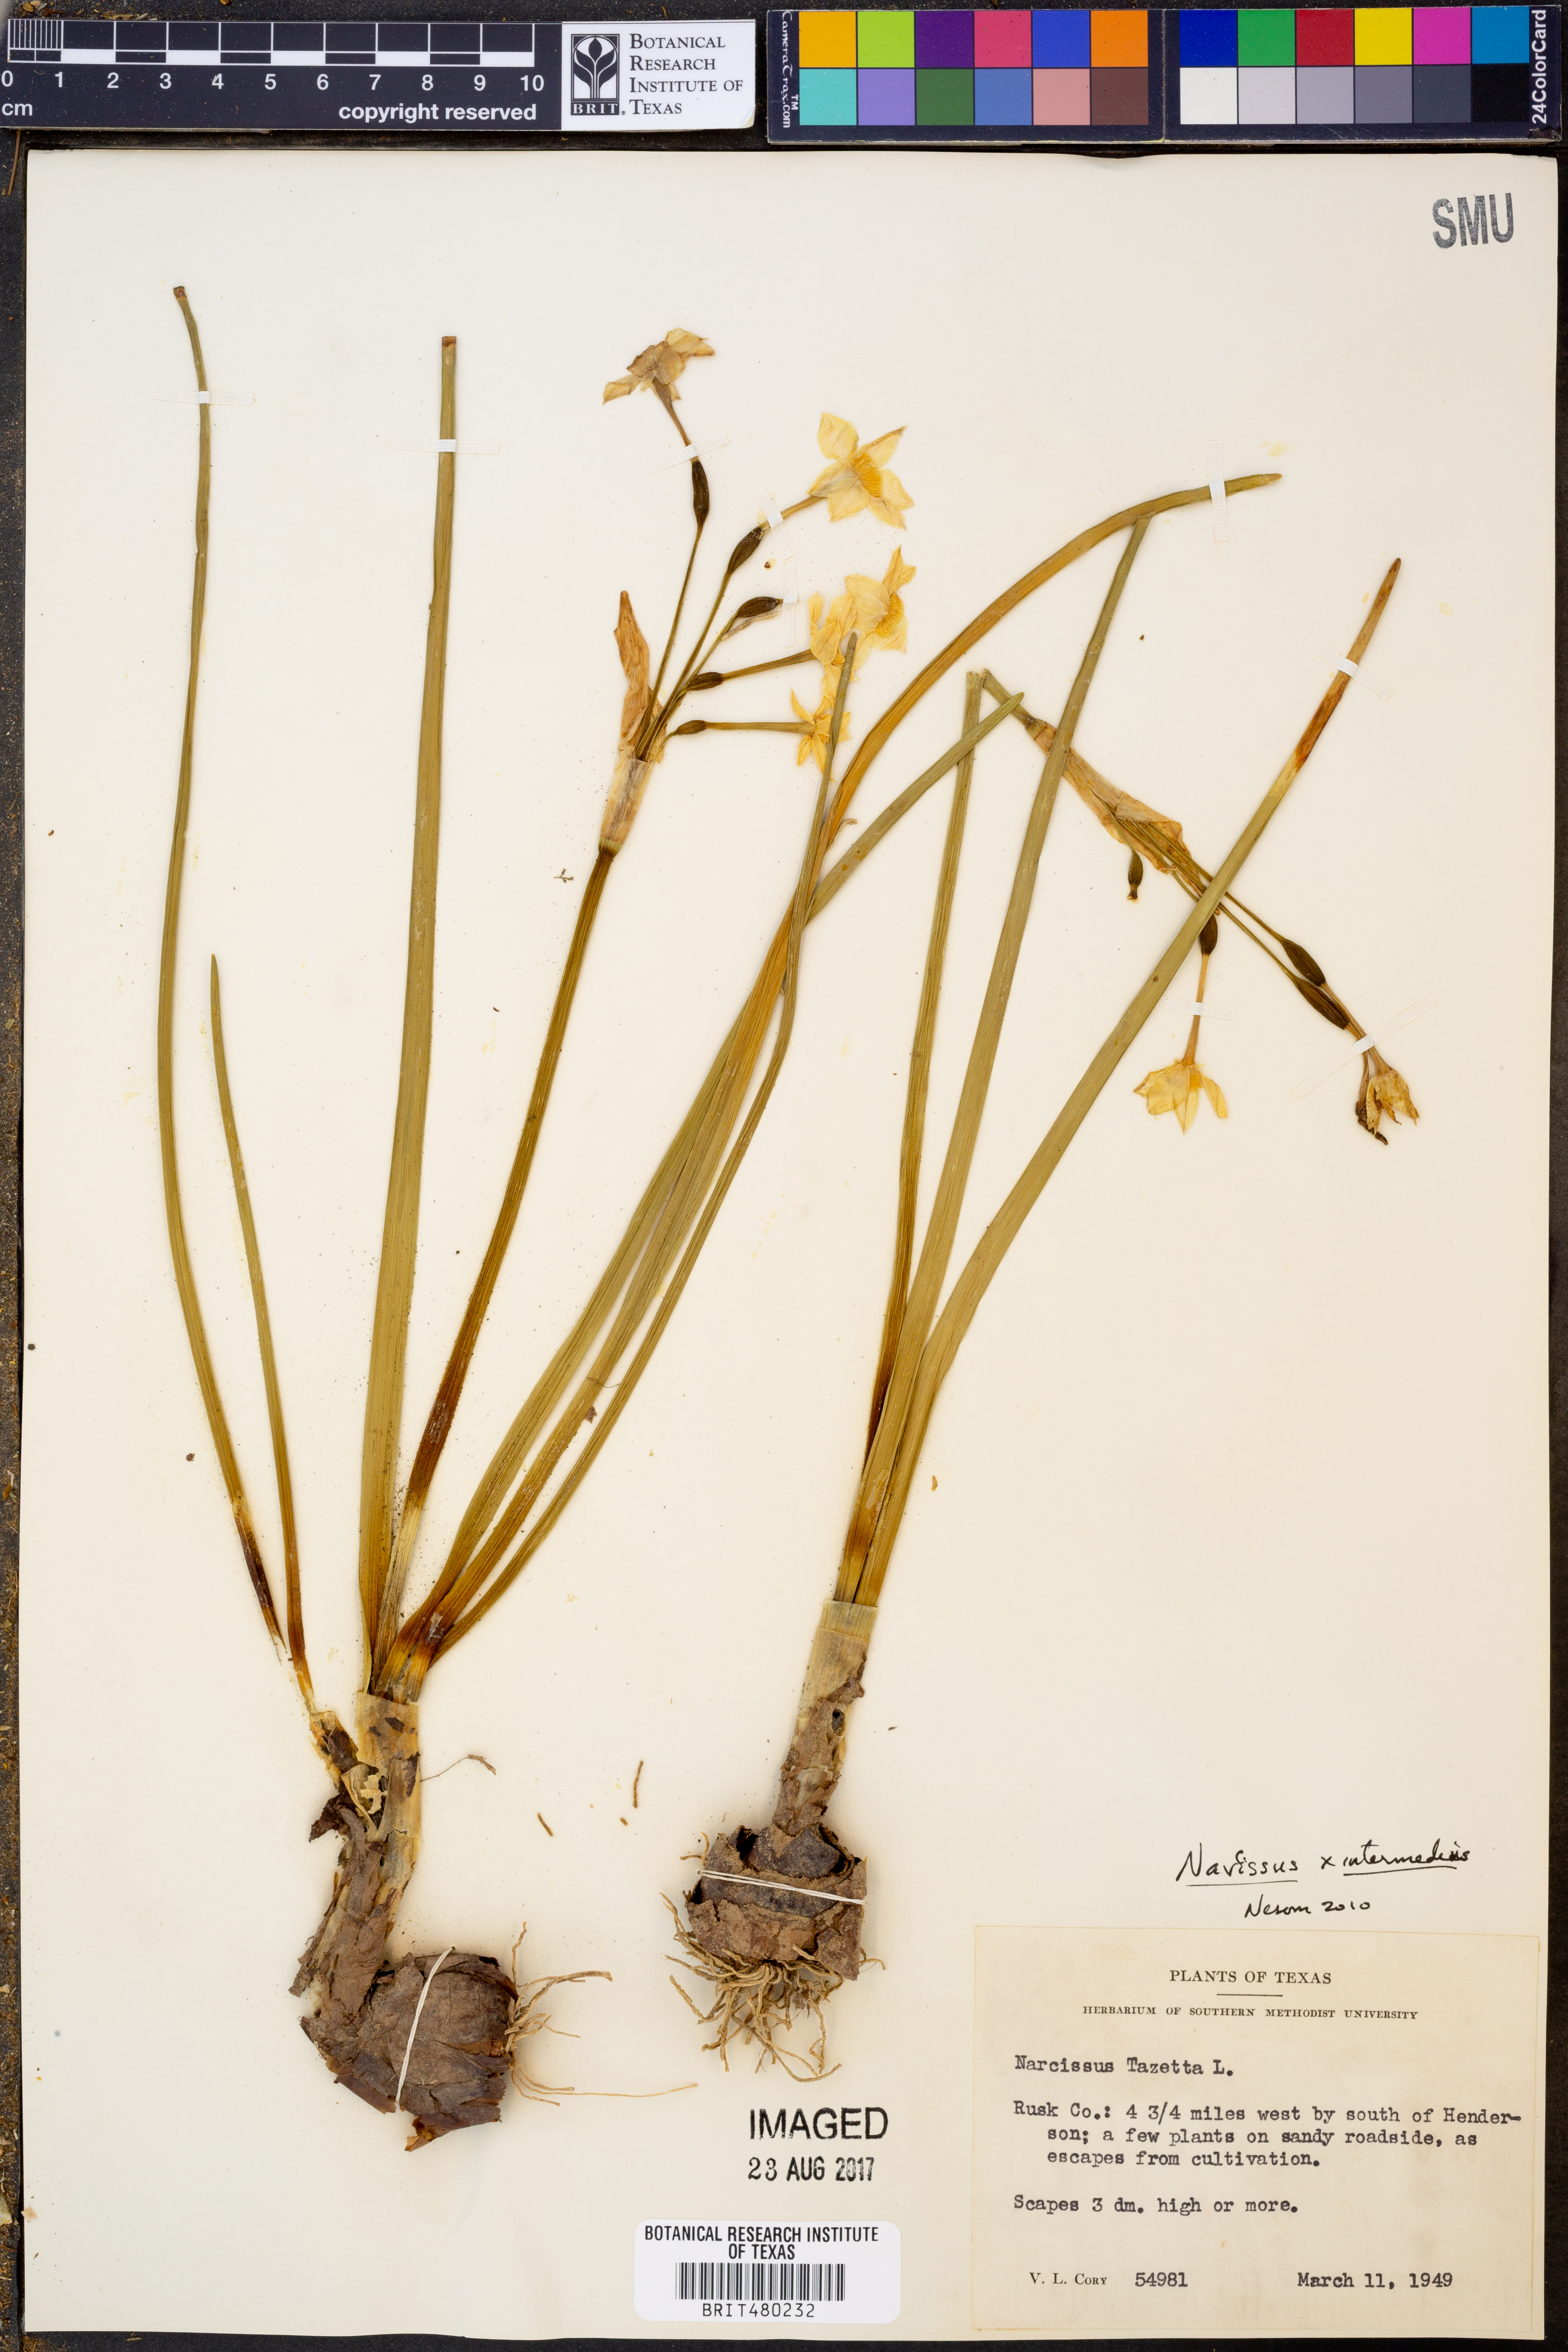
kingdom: Plantae
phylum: Tracheophyta
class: Liliopsida
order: Asparagales
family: Amaryllidaceae
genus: Narcissus
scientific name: Narcissus intermedius
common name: Hybrid daffodil
